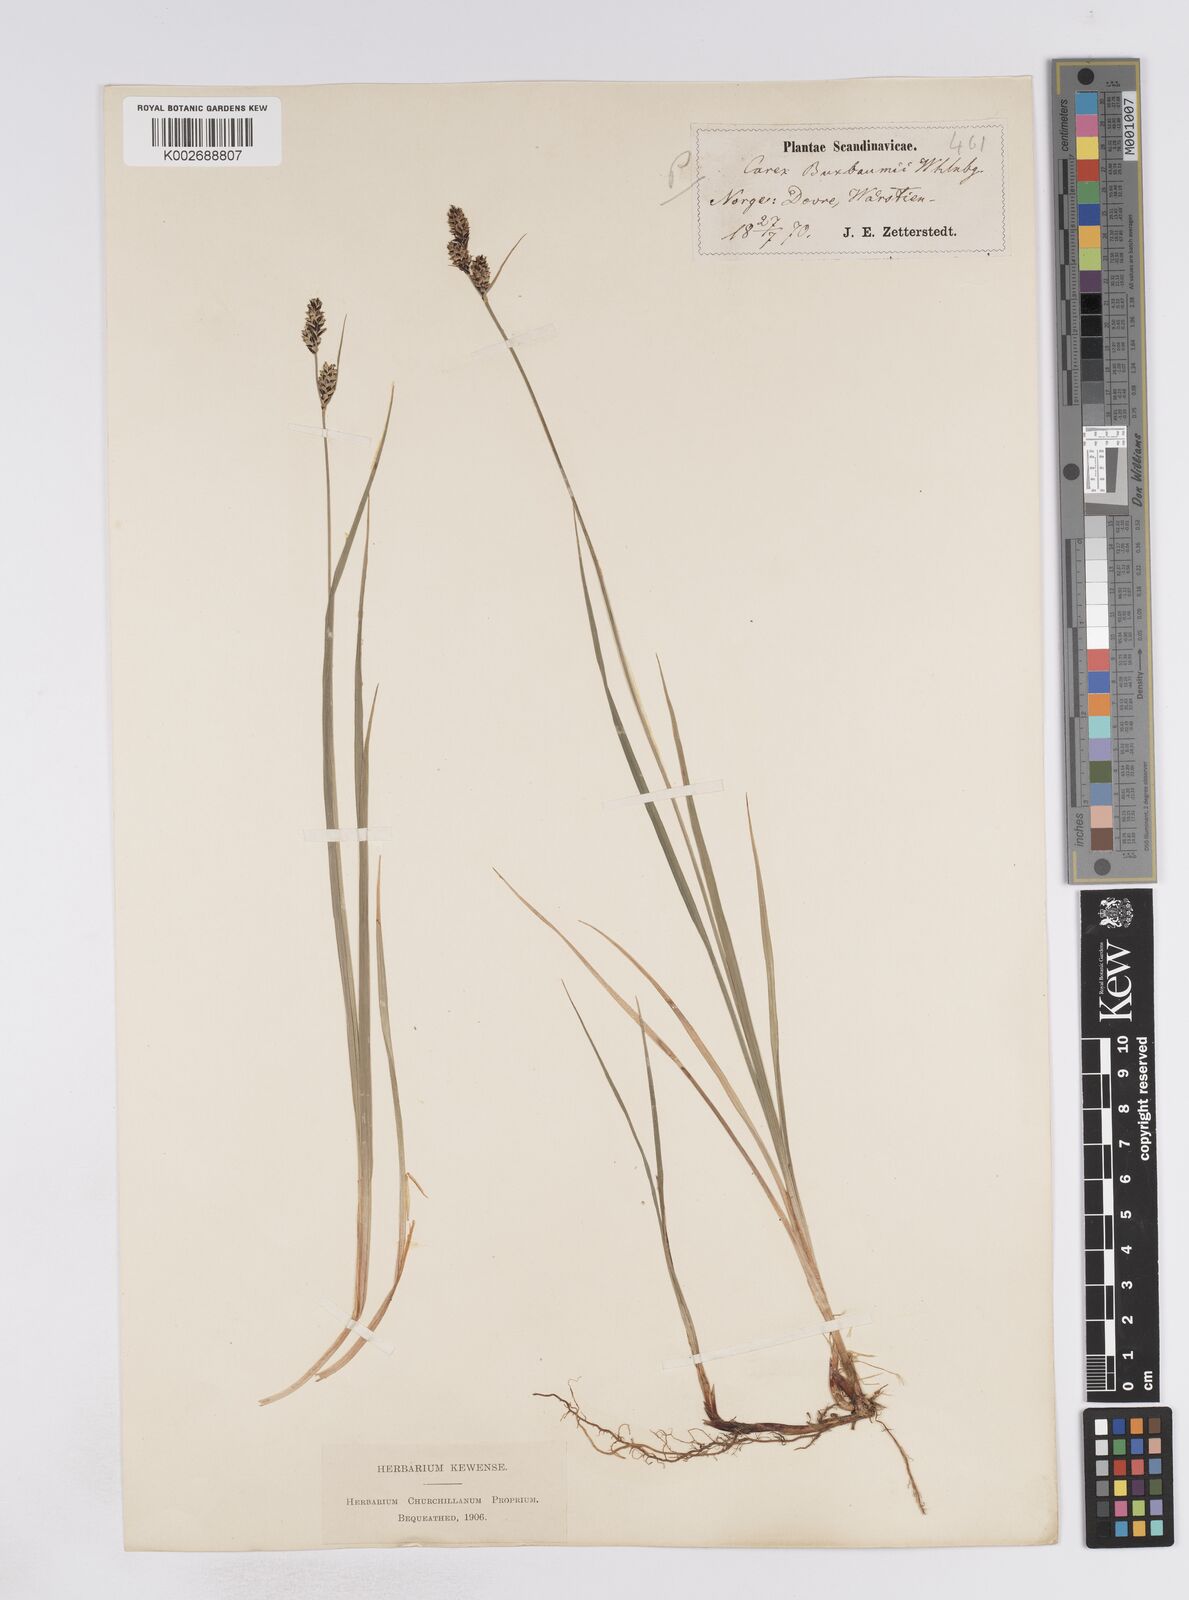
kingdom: Plantae
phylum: Tracheophyta
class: Liliopsida
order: Poales
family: Cyperaceae
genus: Carex
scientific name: Carex buxbaumii
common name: Club sedge
